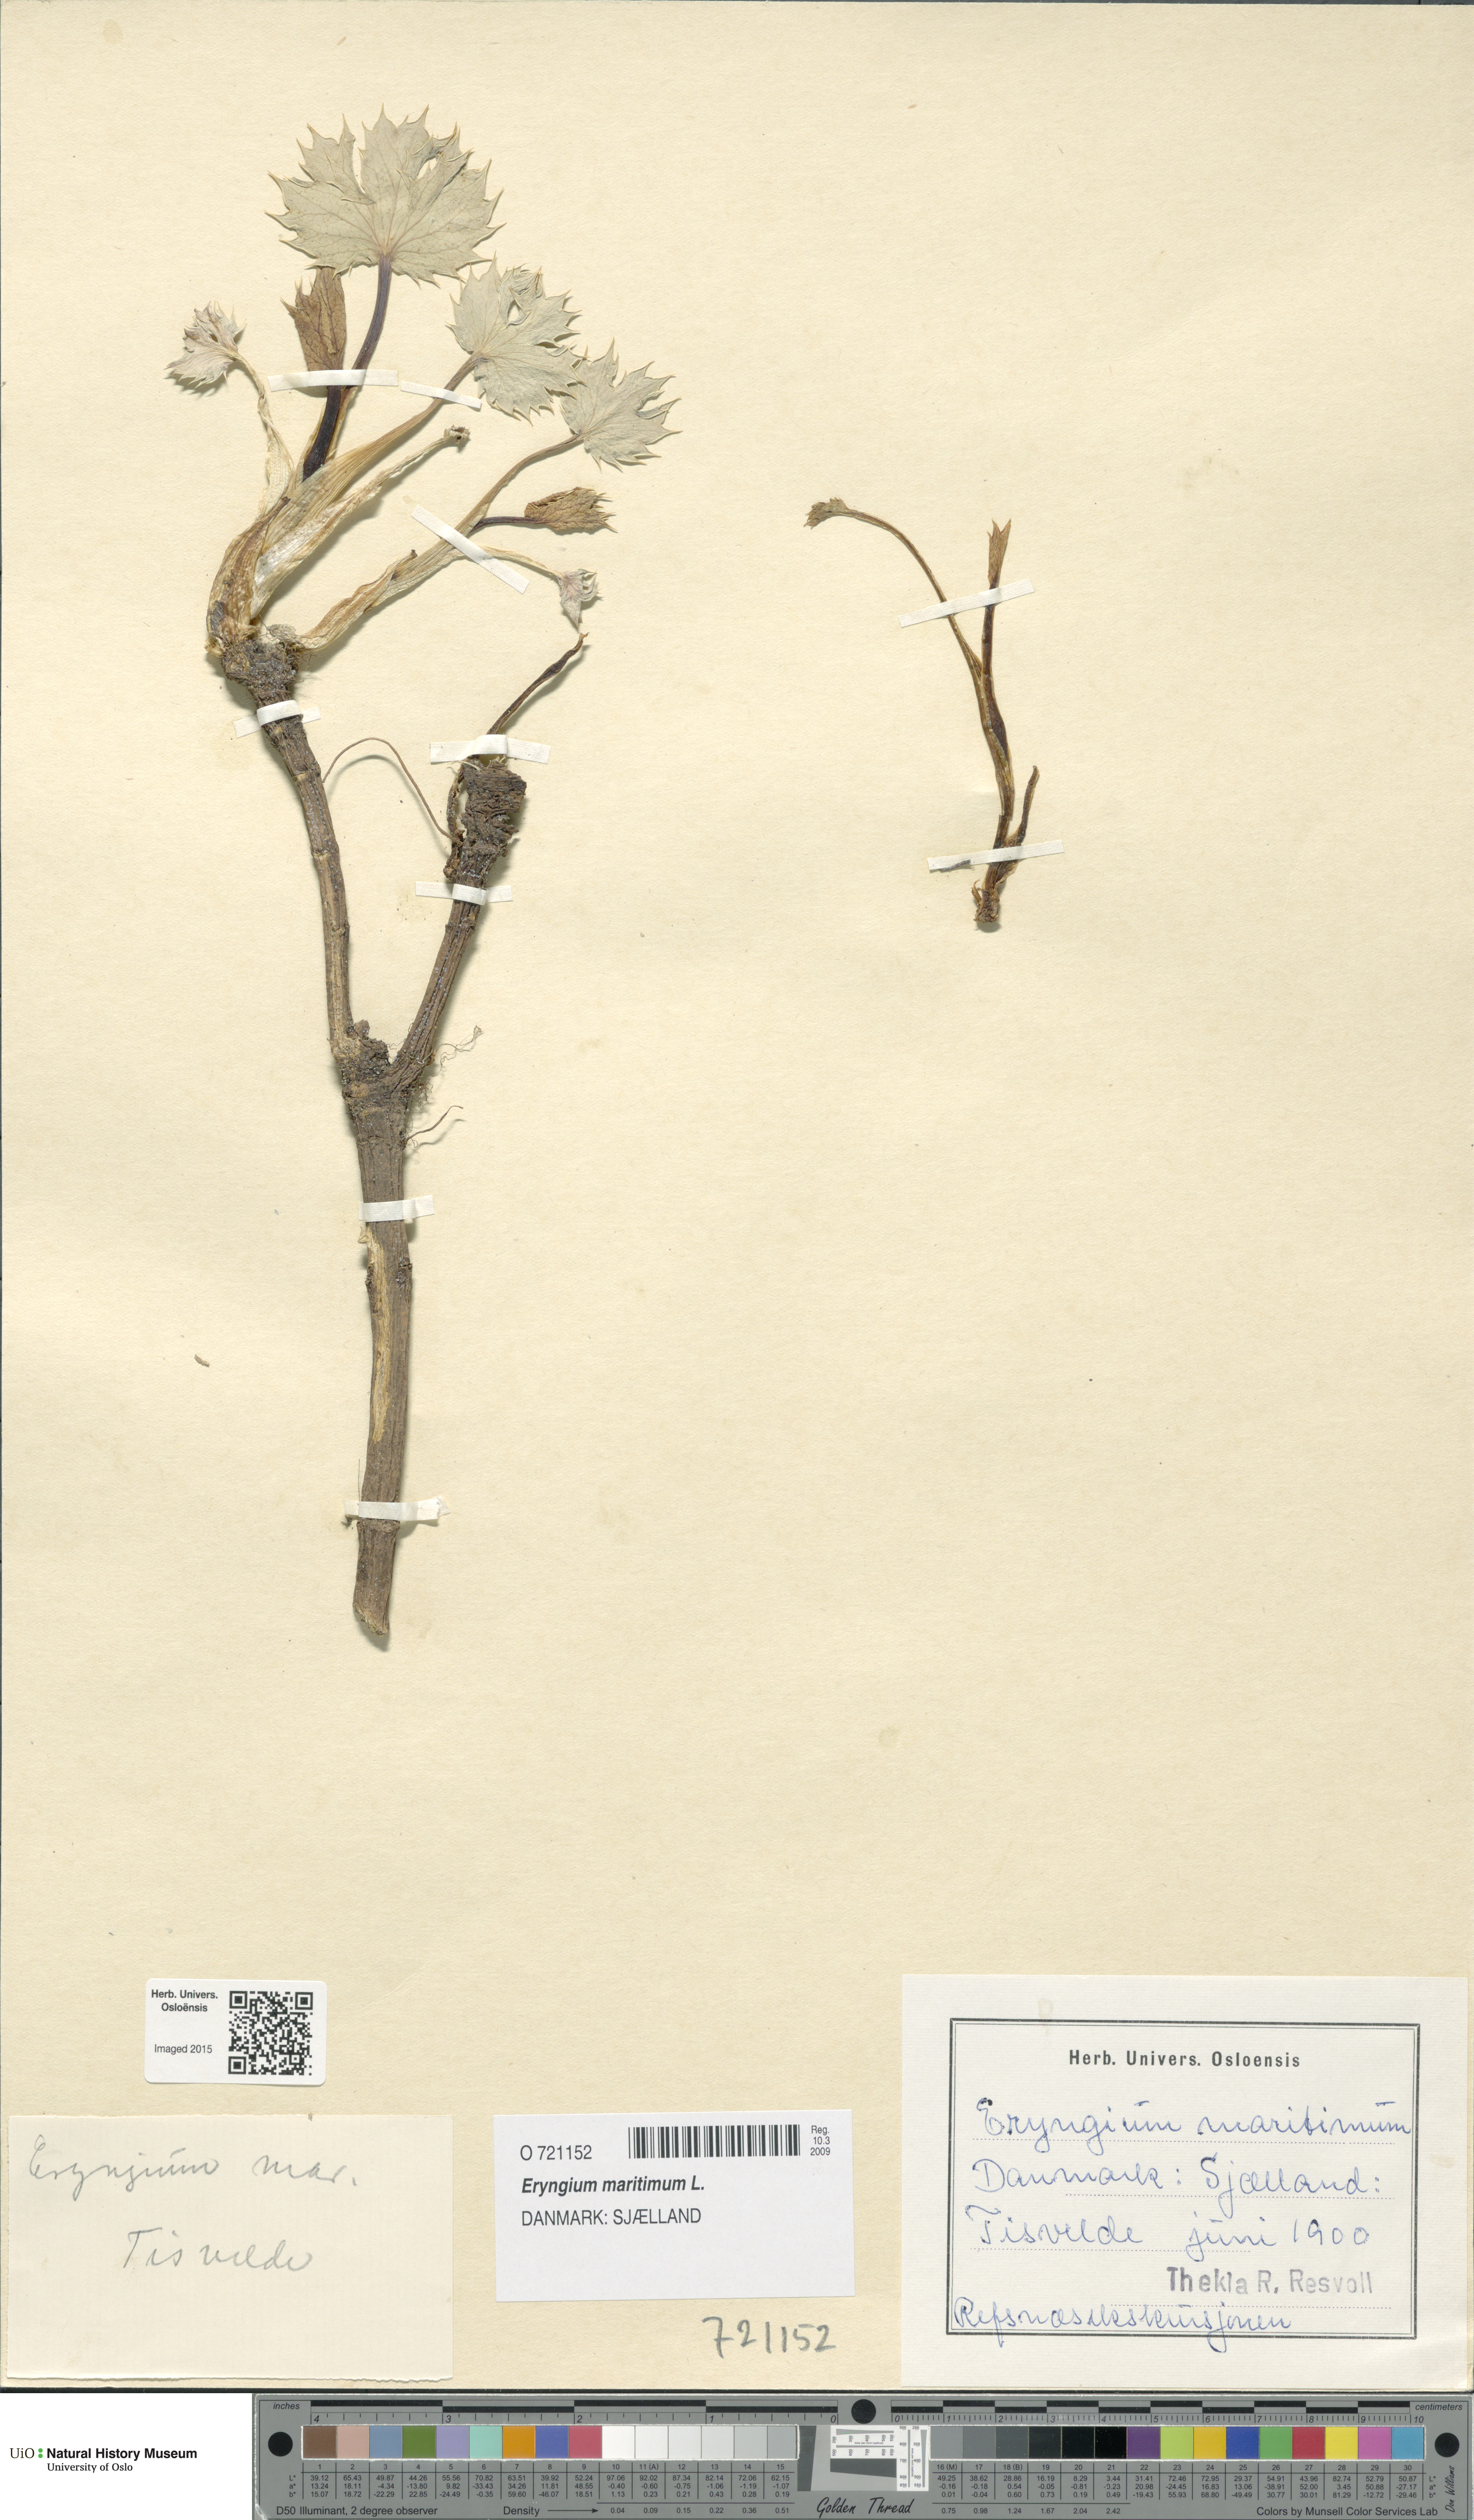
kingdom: Plantae
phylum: Tracheophyta
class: Magnoliopsida
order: Apiales
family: Apiaceae
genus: Eryngium
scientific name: Eryngium maritimum
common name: Sea-holly
